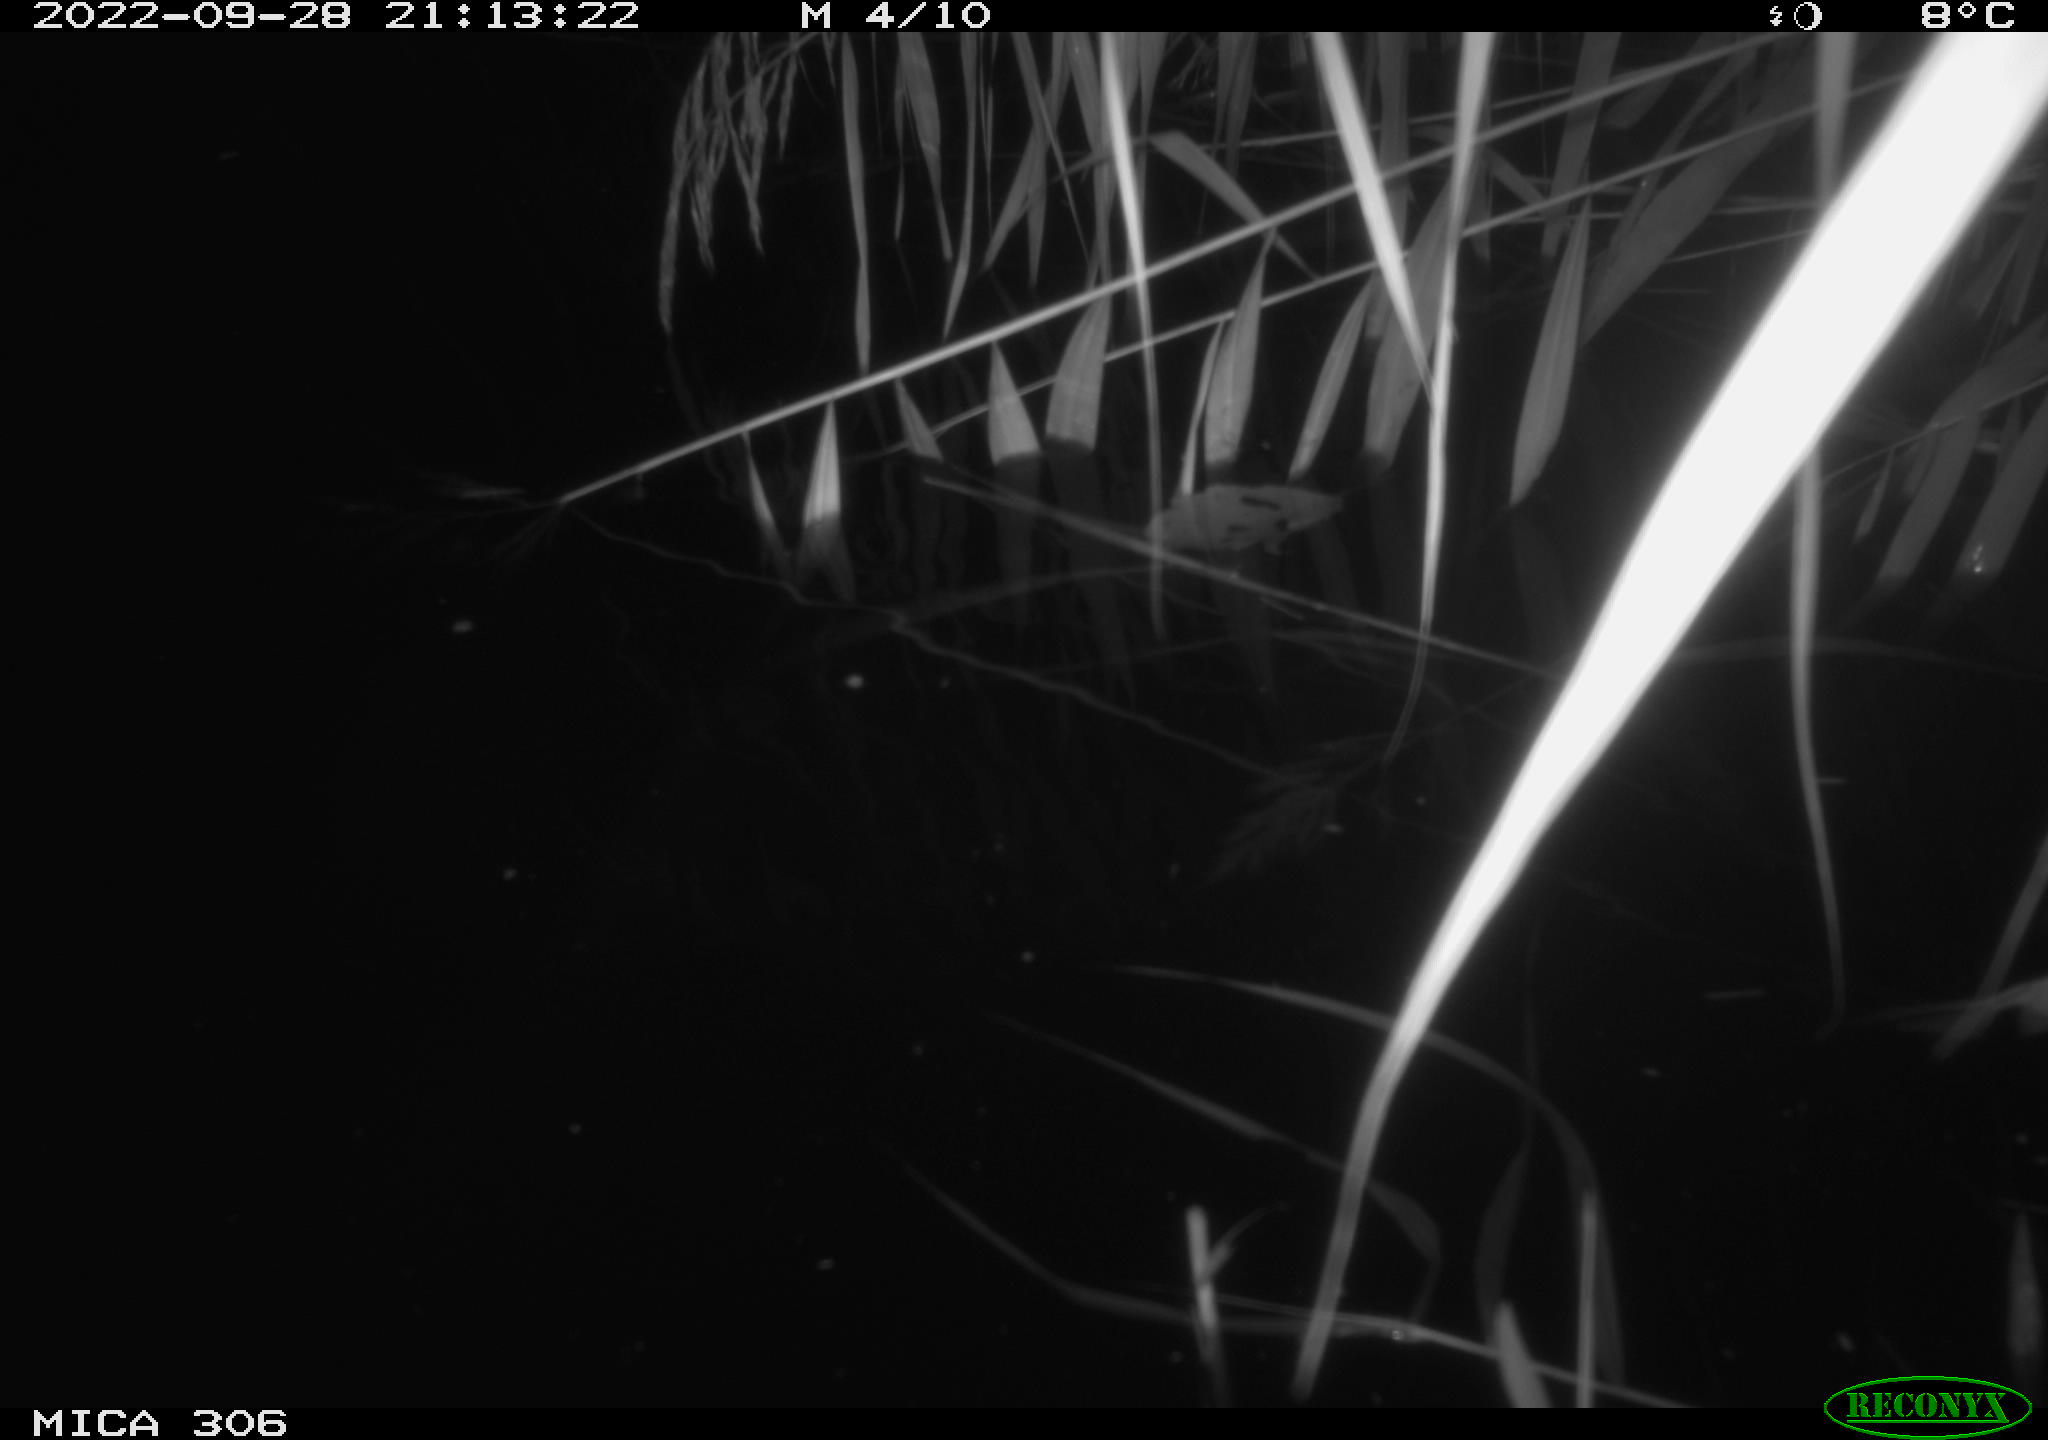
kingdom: Animalia
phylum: Chordata
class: Mammalia
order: Rodentia
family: Muridae
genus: Rattus
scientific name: Rattus norvegicus
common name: Brown rat
